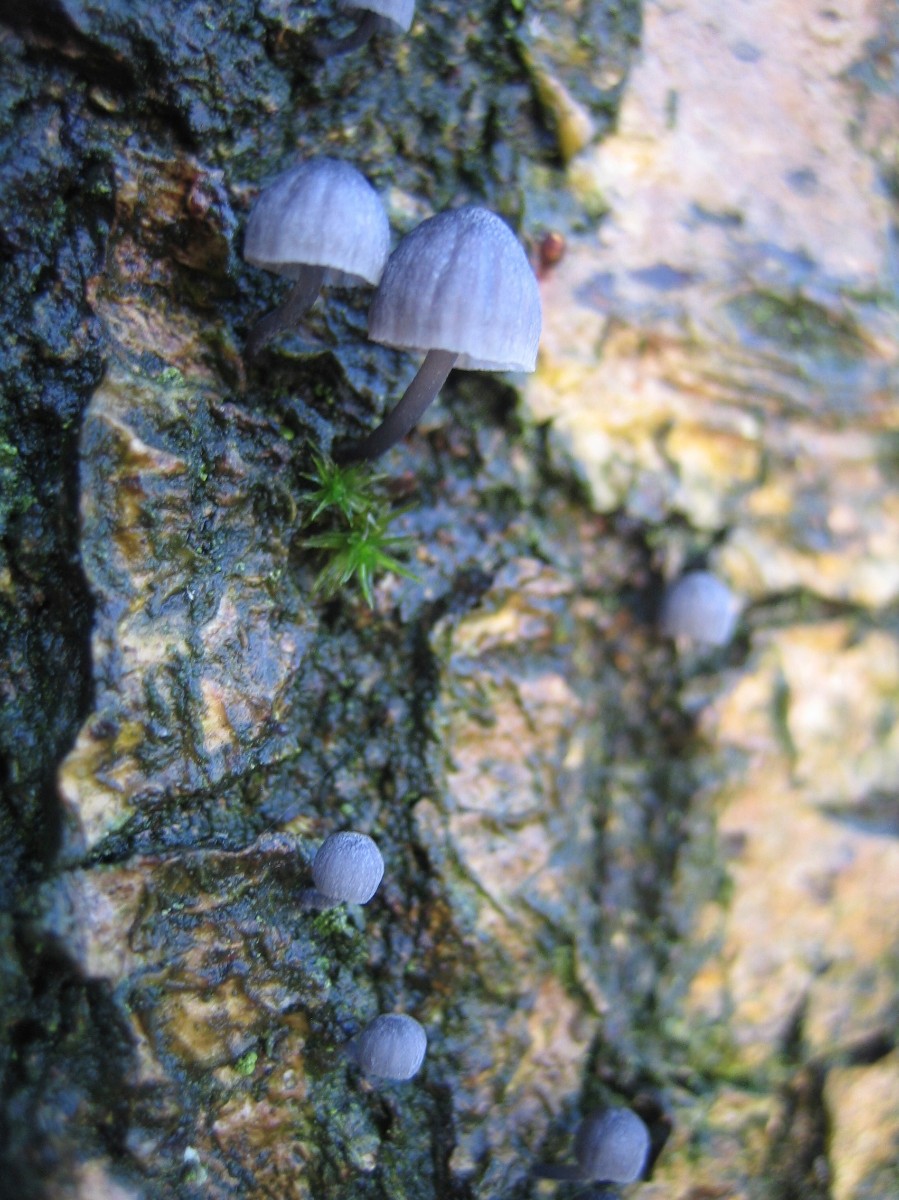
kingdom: Fungi
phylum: Basidiomycota
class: Agaricomycetes
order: Agaricales
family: Mycenaceae
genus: Mycena
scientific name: Mycena pseudocorticola
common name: gråblå bark-huesvamp
